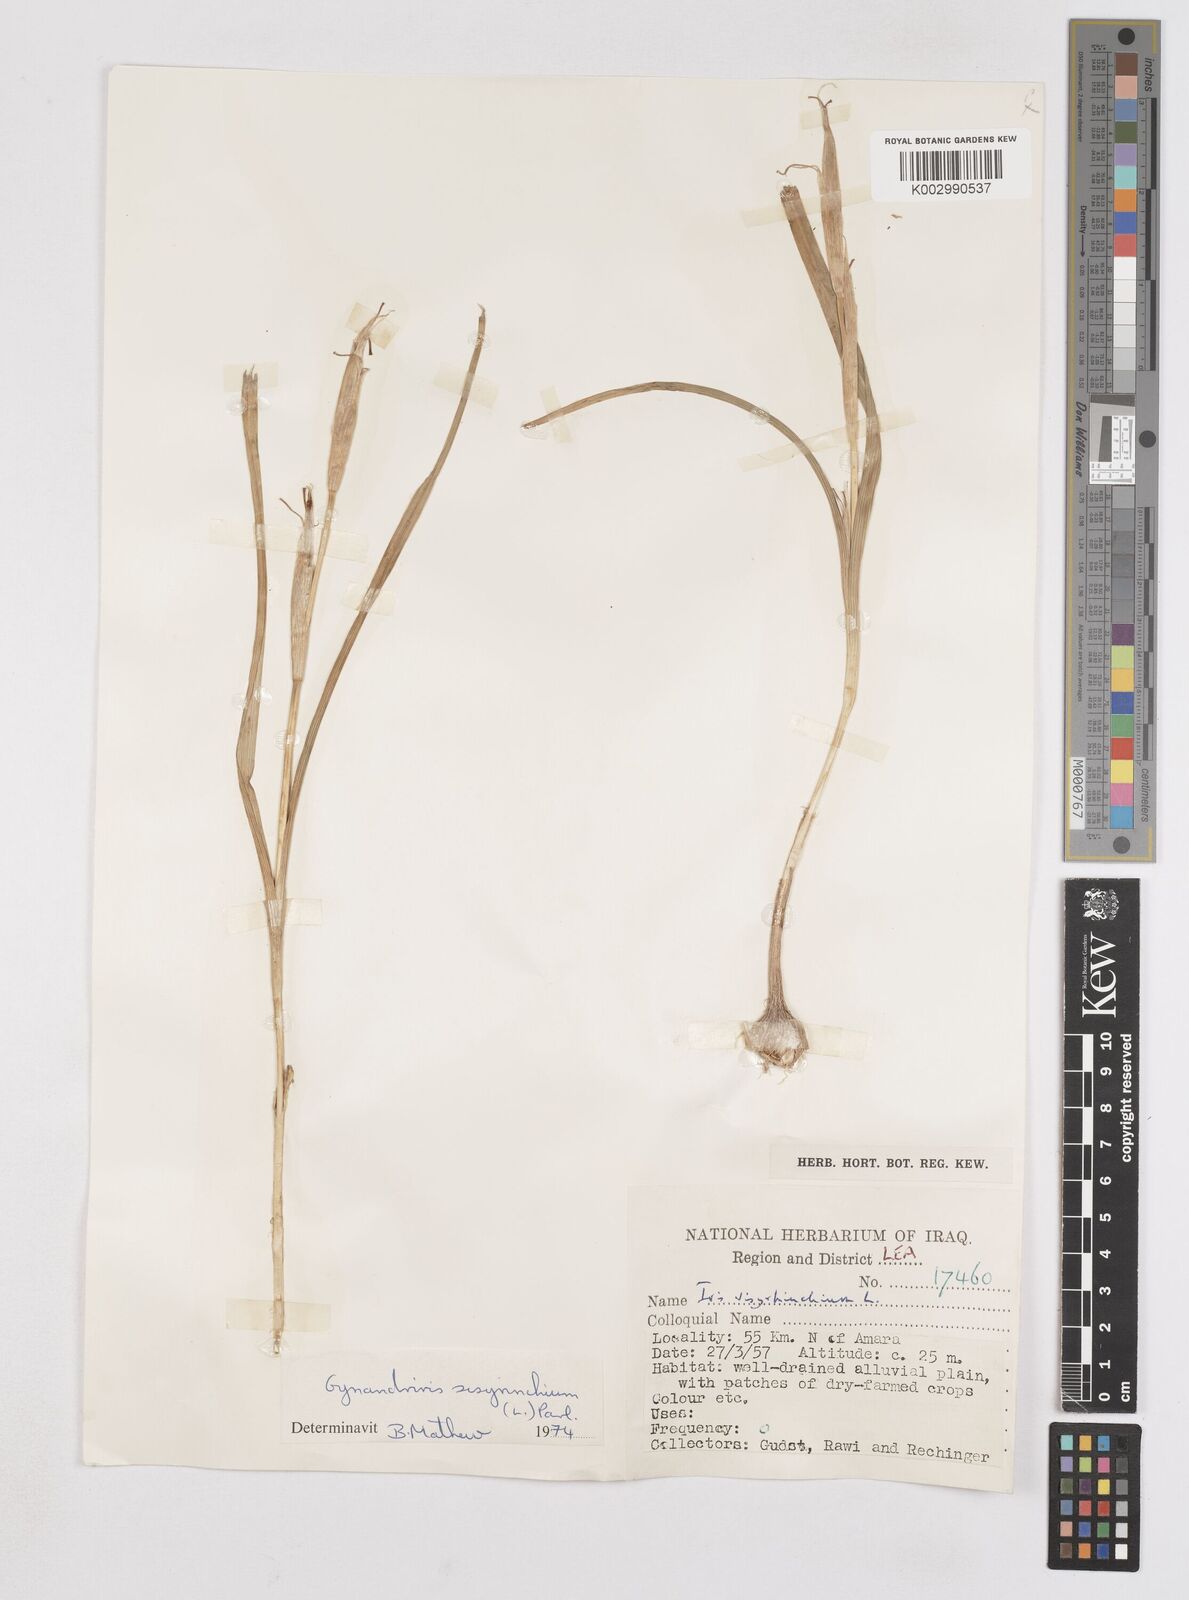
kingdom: Plantae
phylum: Tracheophyta
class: Liliopsida
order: Asparagales
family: Iridaceae
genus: Moraea
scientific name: Moraea sisyrinchium
